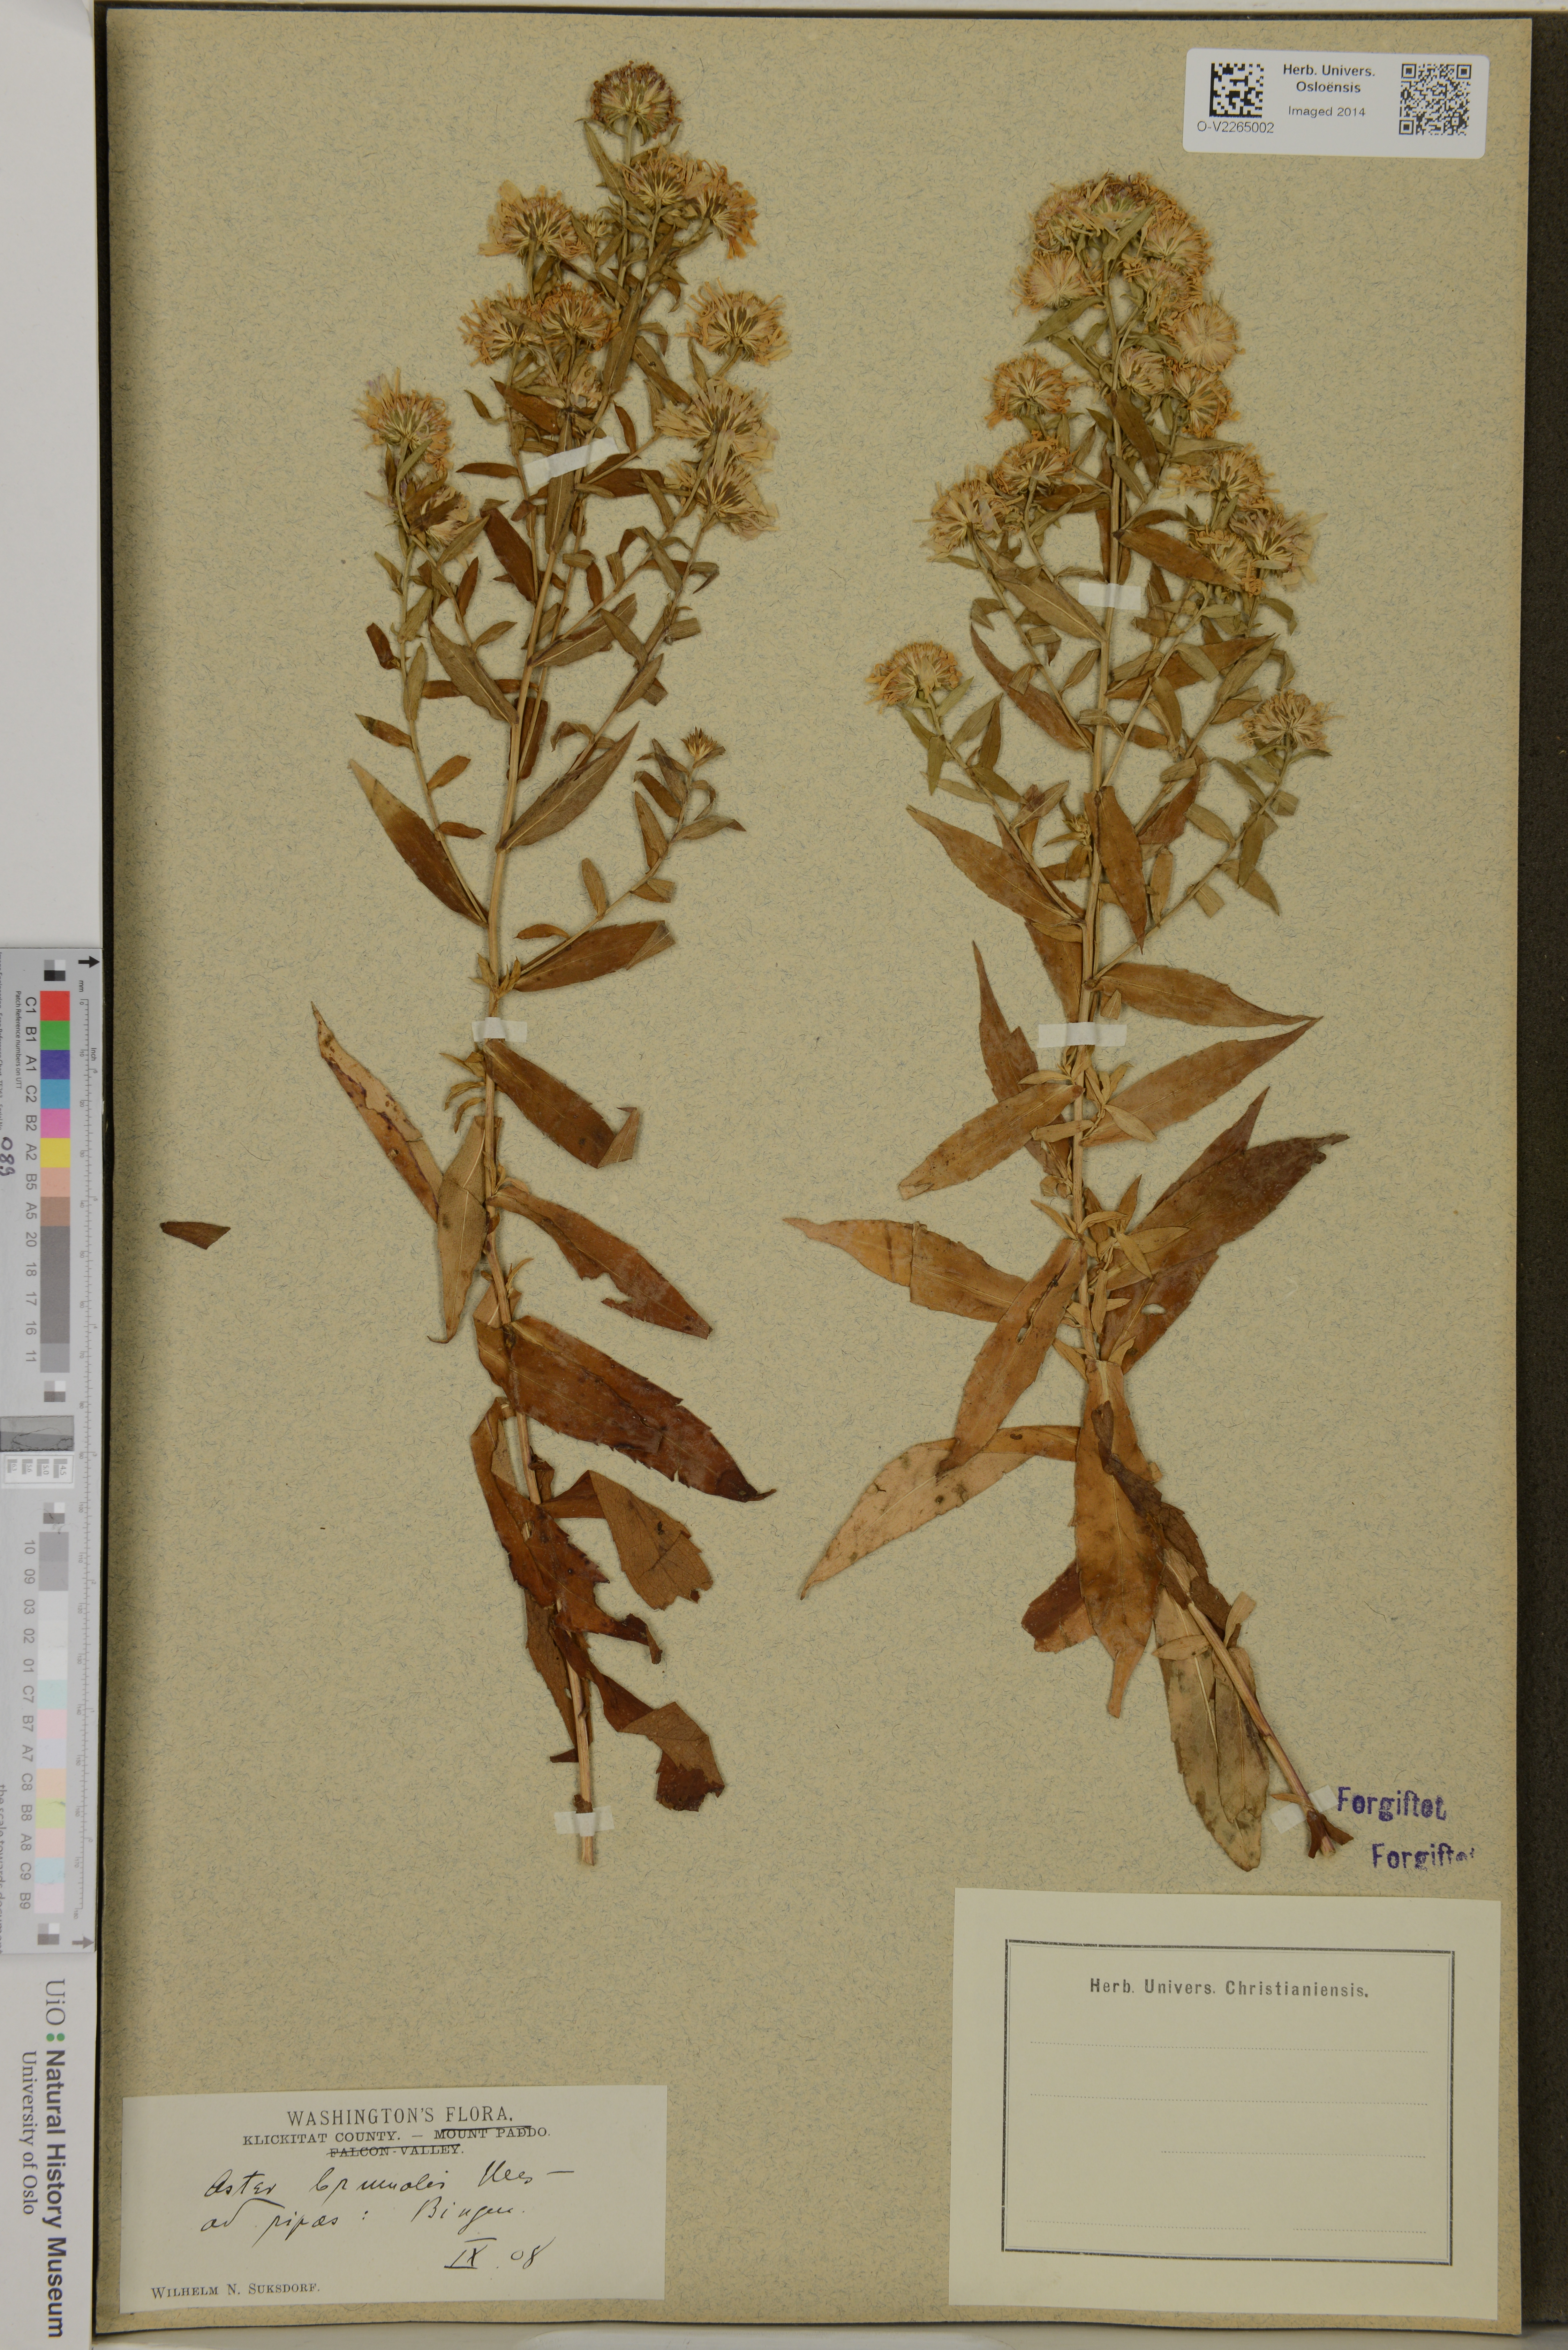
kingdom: Plantae
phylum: Tracheophyta
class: Magnoliopsida
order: Asterales
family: Asteraceae
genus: Symphyotrichum
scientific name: Symphyotrichum novi-belgii
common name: Michaelmas daisy
